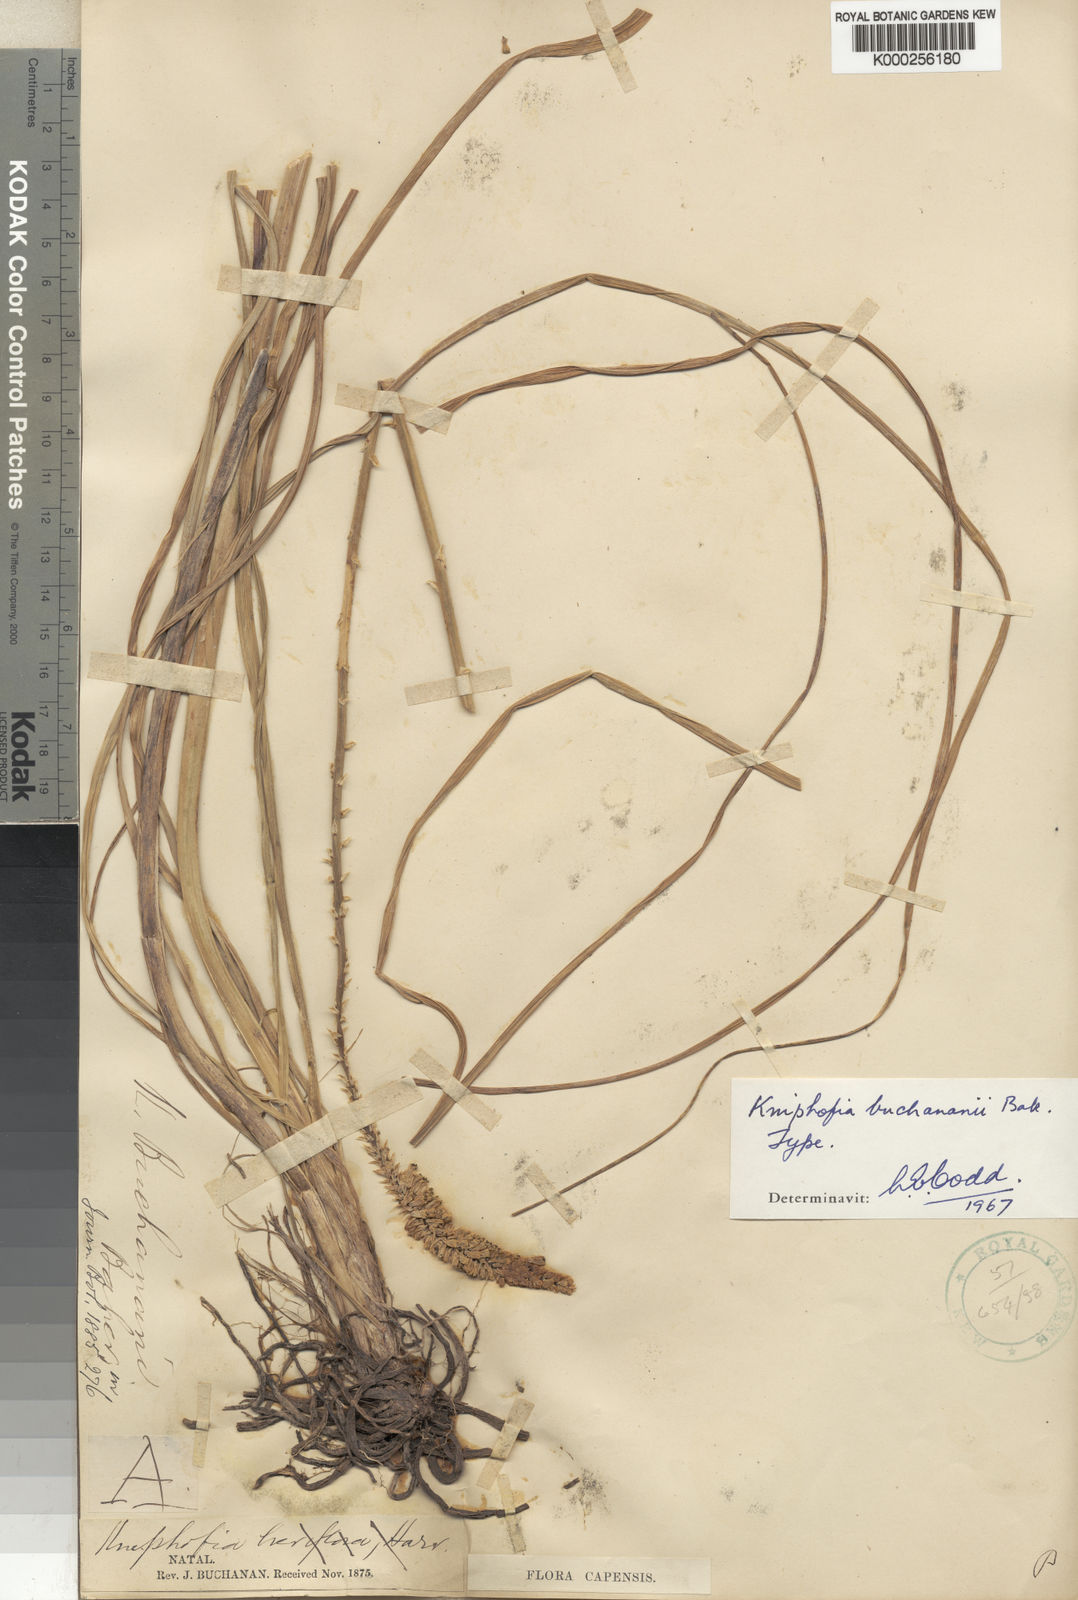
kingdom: Plantae
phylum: Tracheophyta
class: Liliopsida
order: Asparagales
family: Asphodelaceae
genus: Kniphofia
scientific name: Kniphofia buchananii
